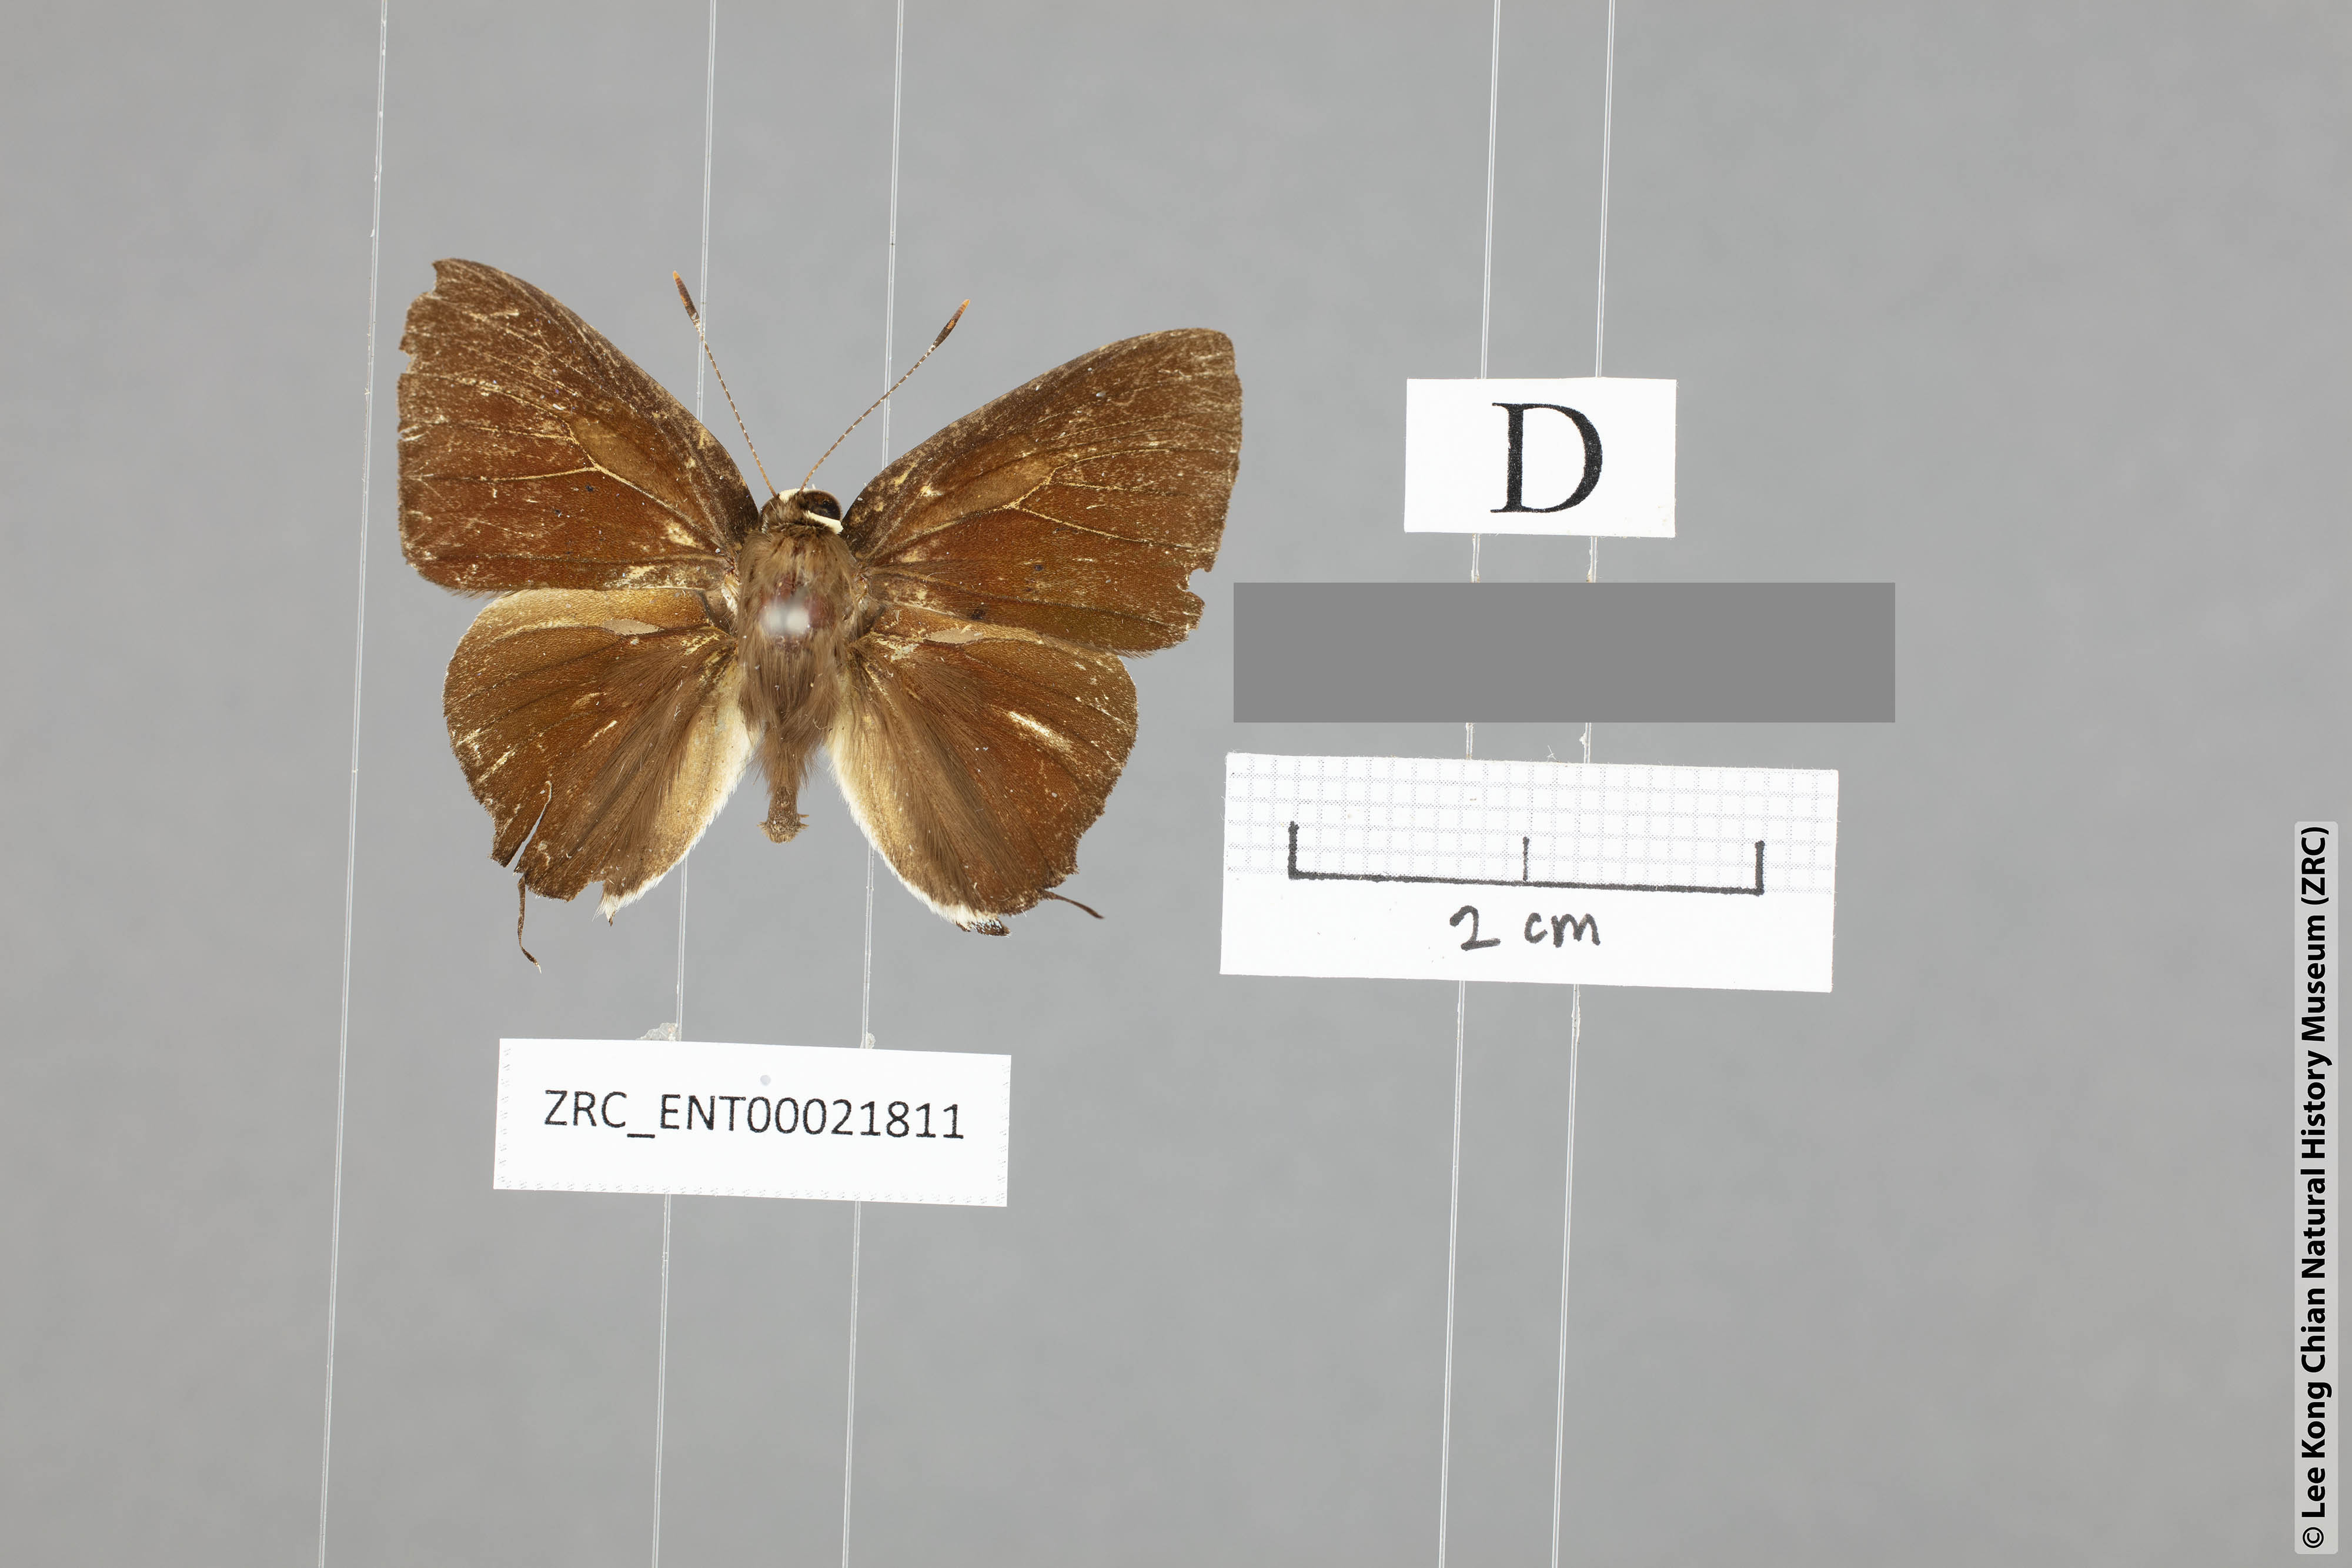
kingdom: Animalia
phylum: Arthropoda
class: Insecta
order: Lepidoptera
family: Lycaenidae
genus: Rapala
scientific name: Rapala domitia
